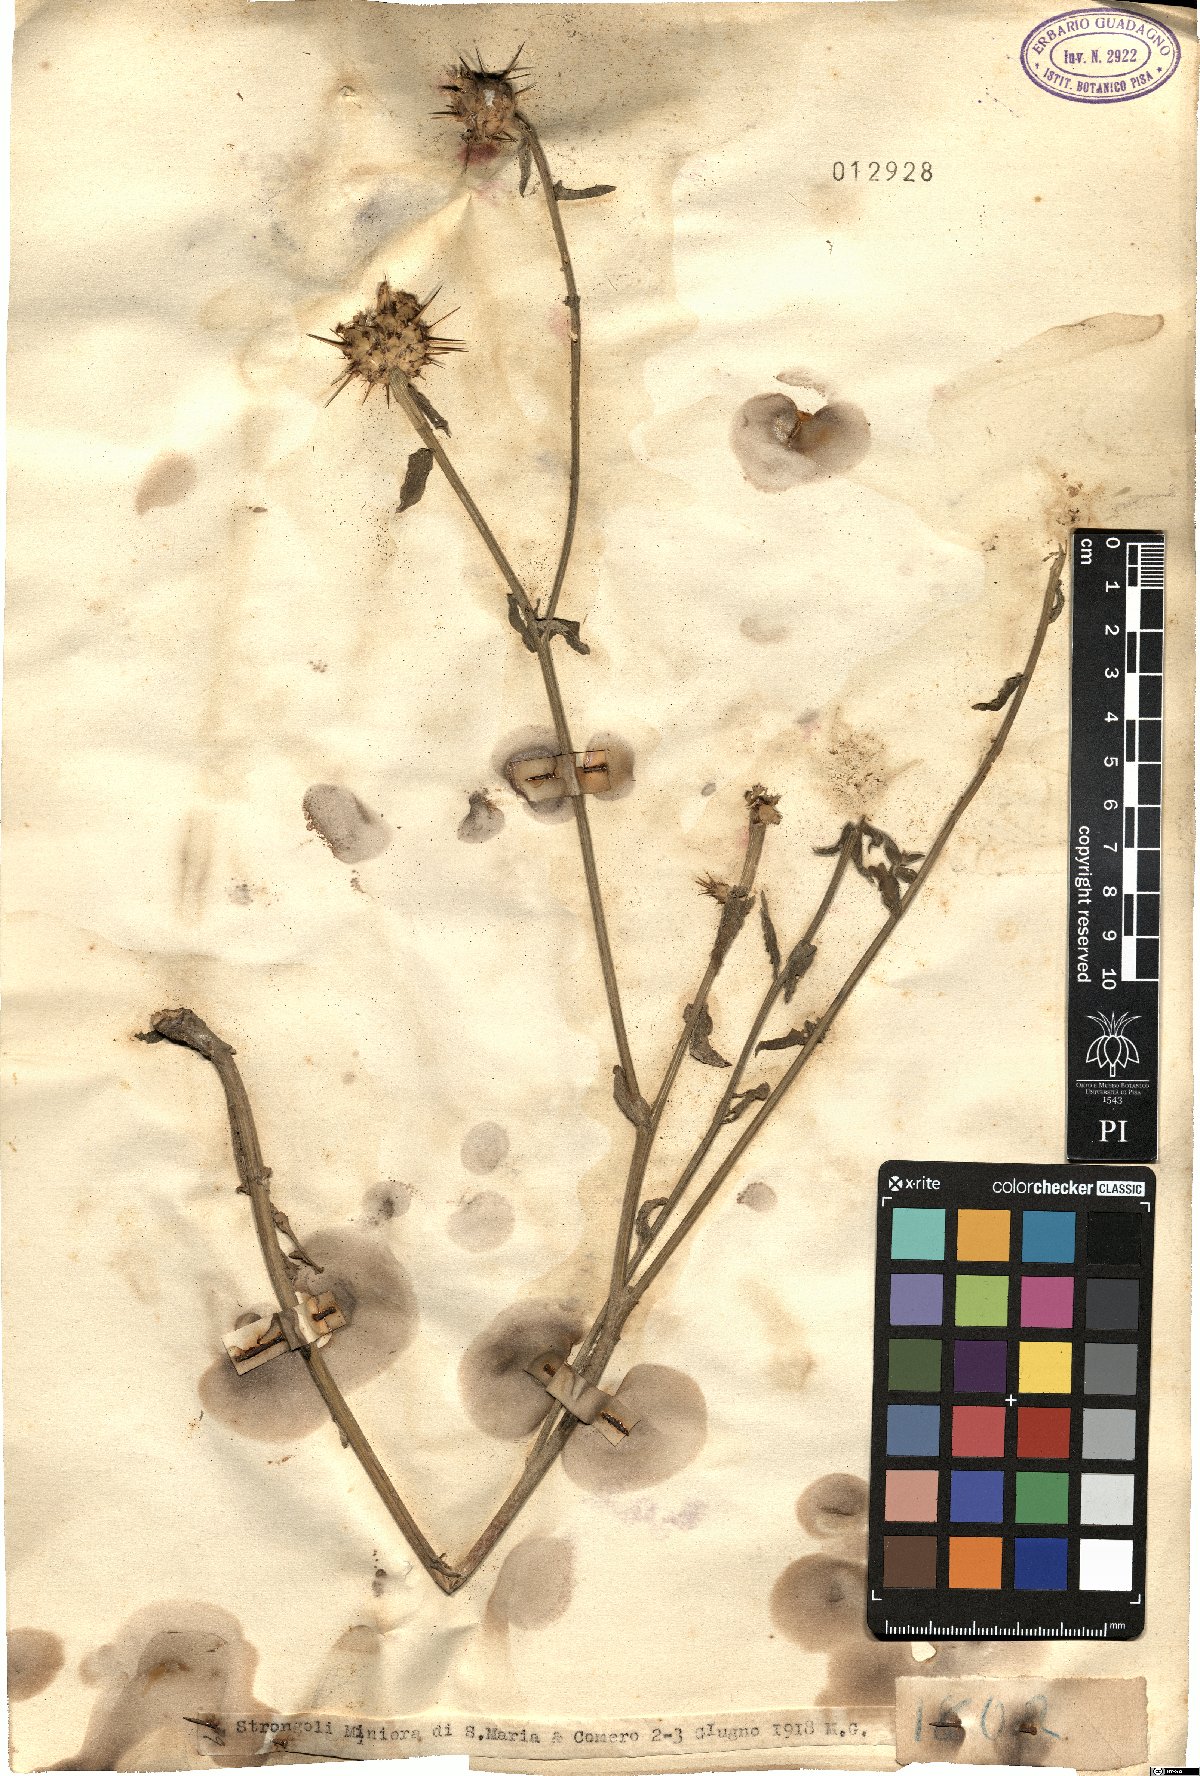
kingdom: Plantae
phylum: Tracheophyta
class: Magnoliopsida
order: Asterales
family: Asteraceae
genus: Centaurea
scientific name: Centaurea
